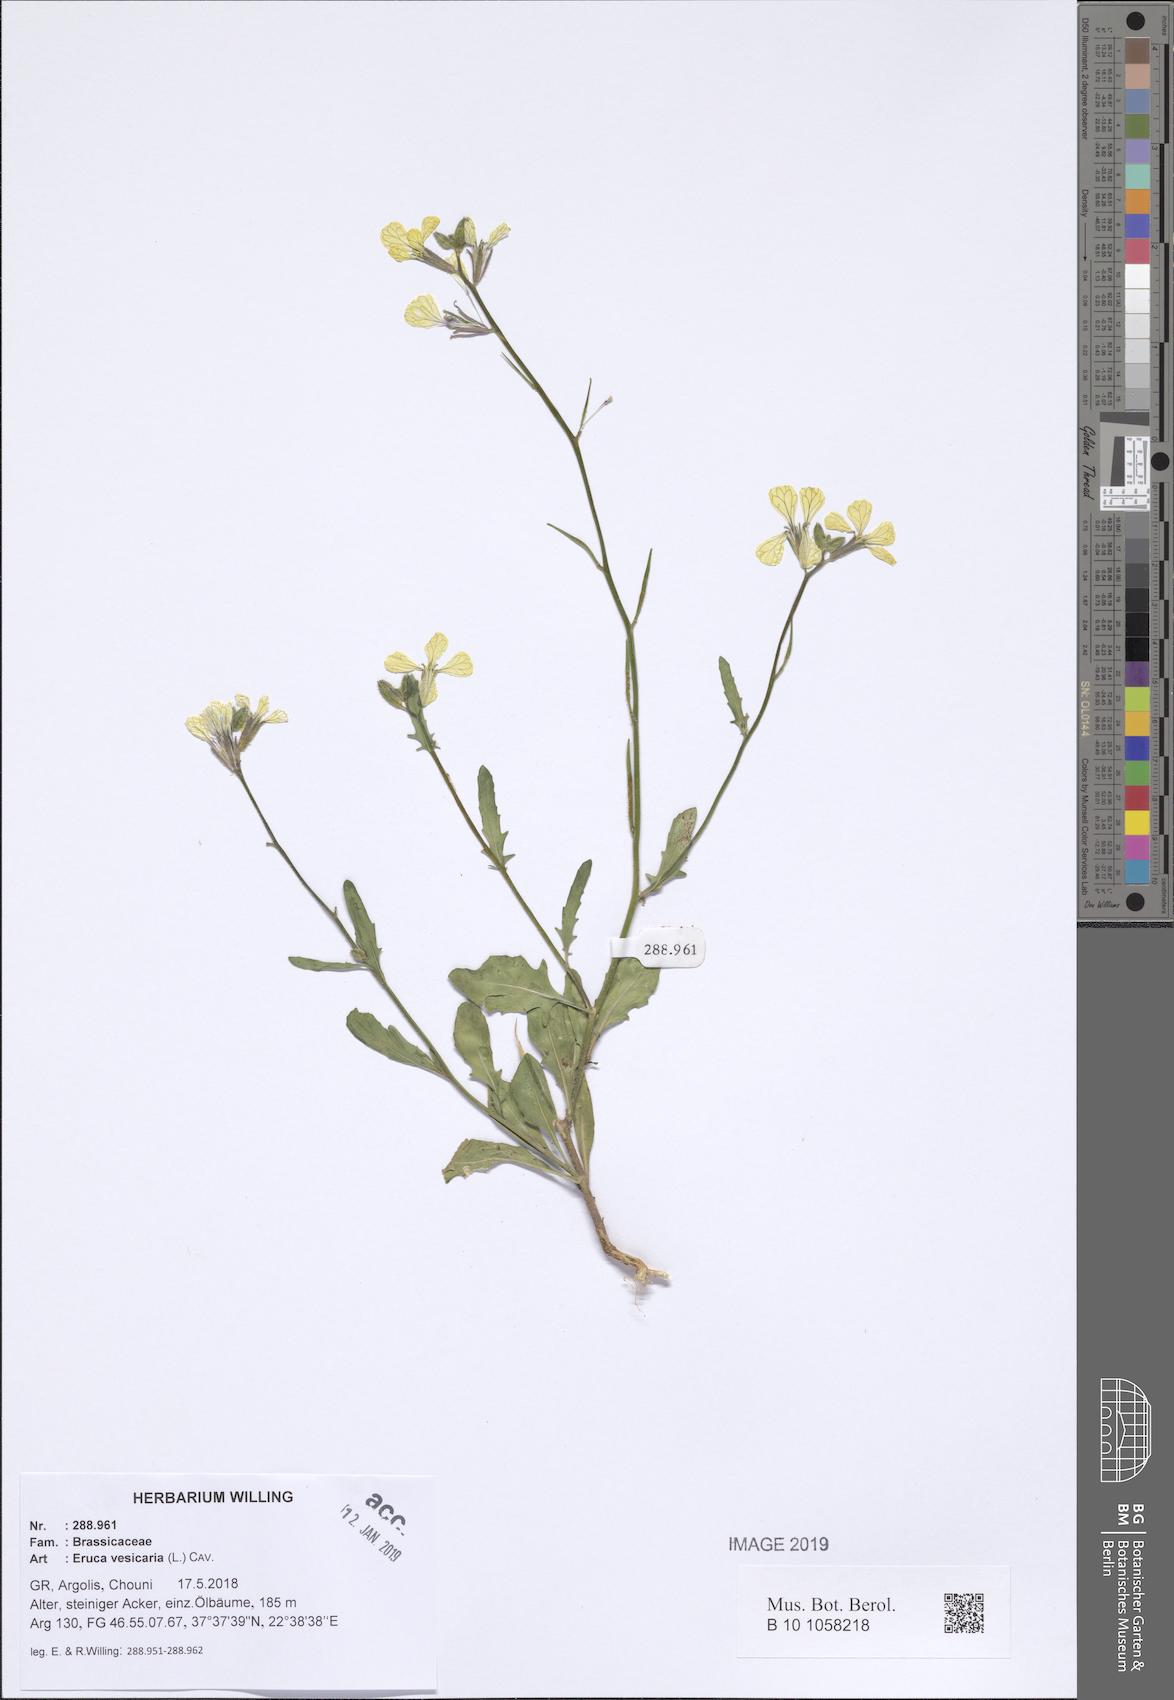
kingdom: Plantae
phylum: Tracheophyta
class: Magnoliopsida
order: Brassicales
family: Brassicaceae
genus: Eruca
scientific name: Eruca vesicaria
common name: Garden rocket
